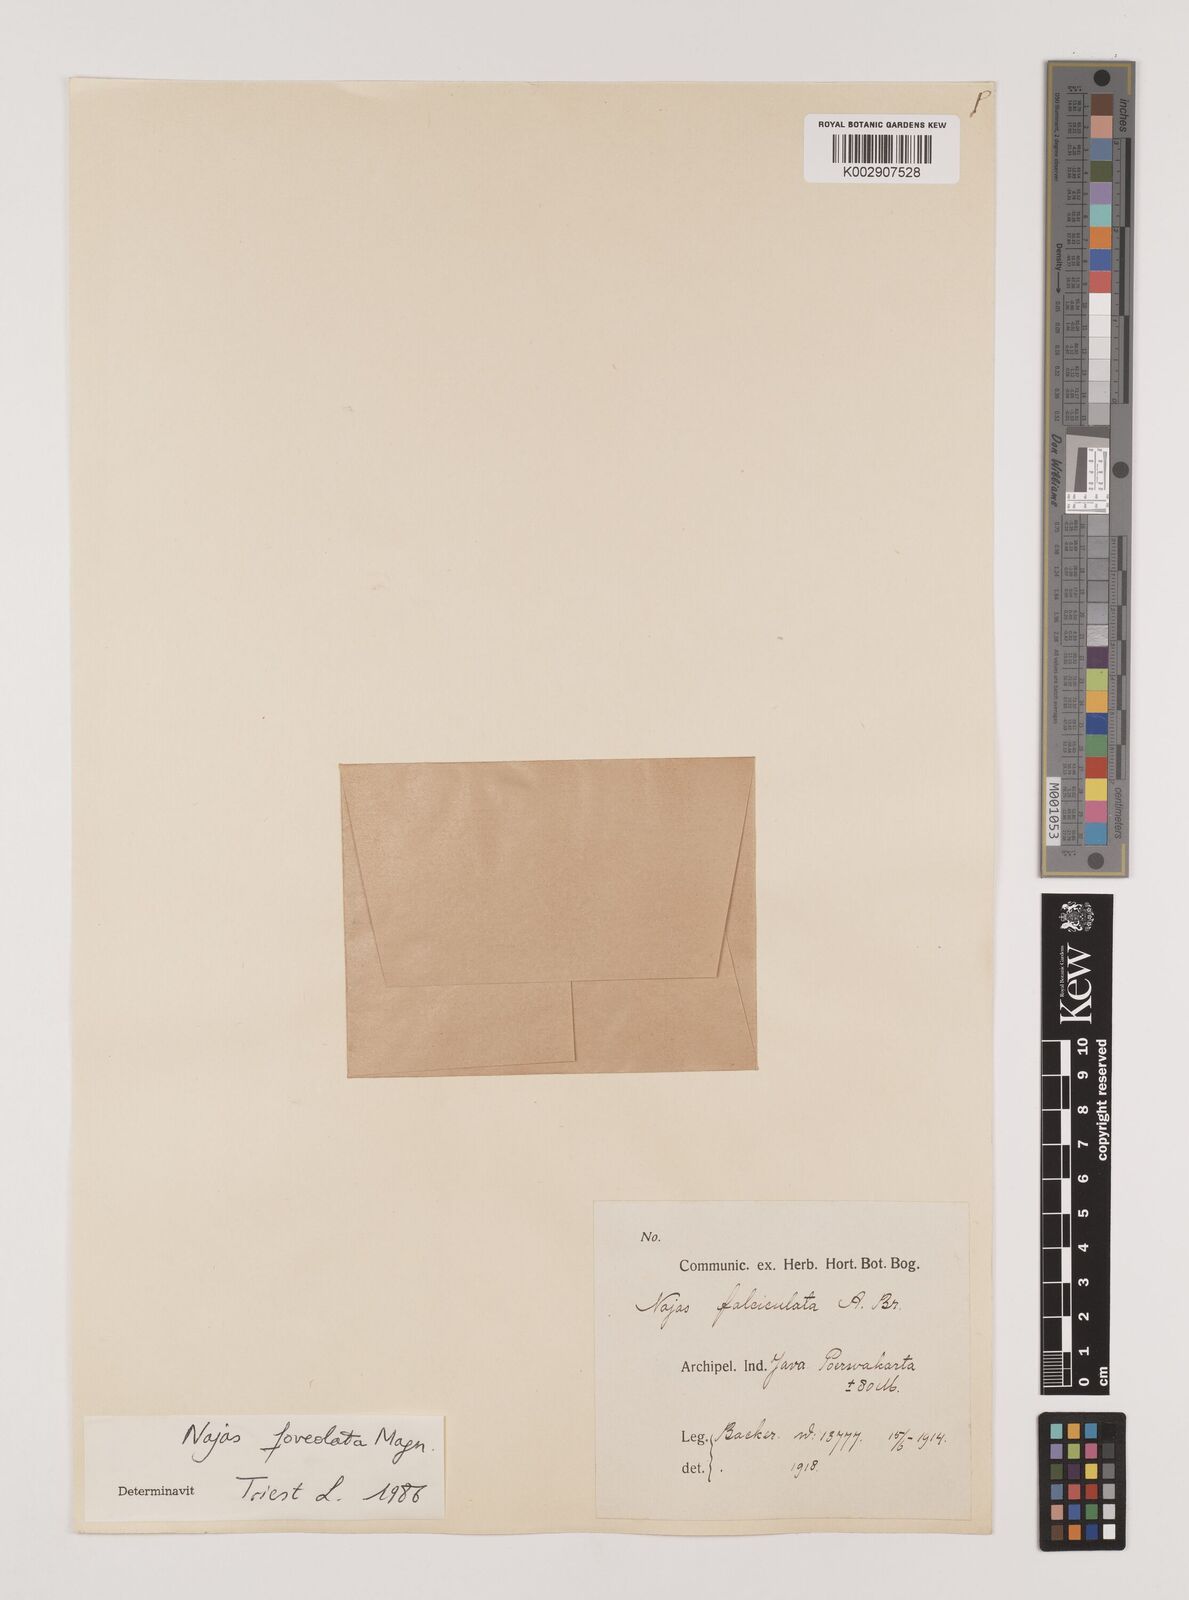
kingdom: Plantae
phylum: Tracheophyta
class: Liliopsida
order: Alismatales
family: Hydrocharitaceae
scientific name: Hydrocharitaceae
